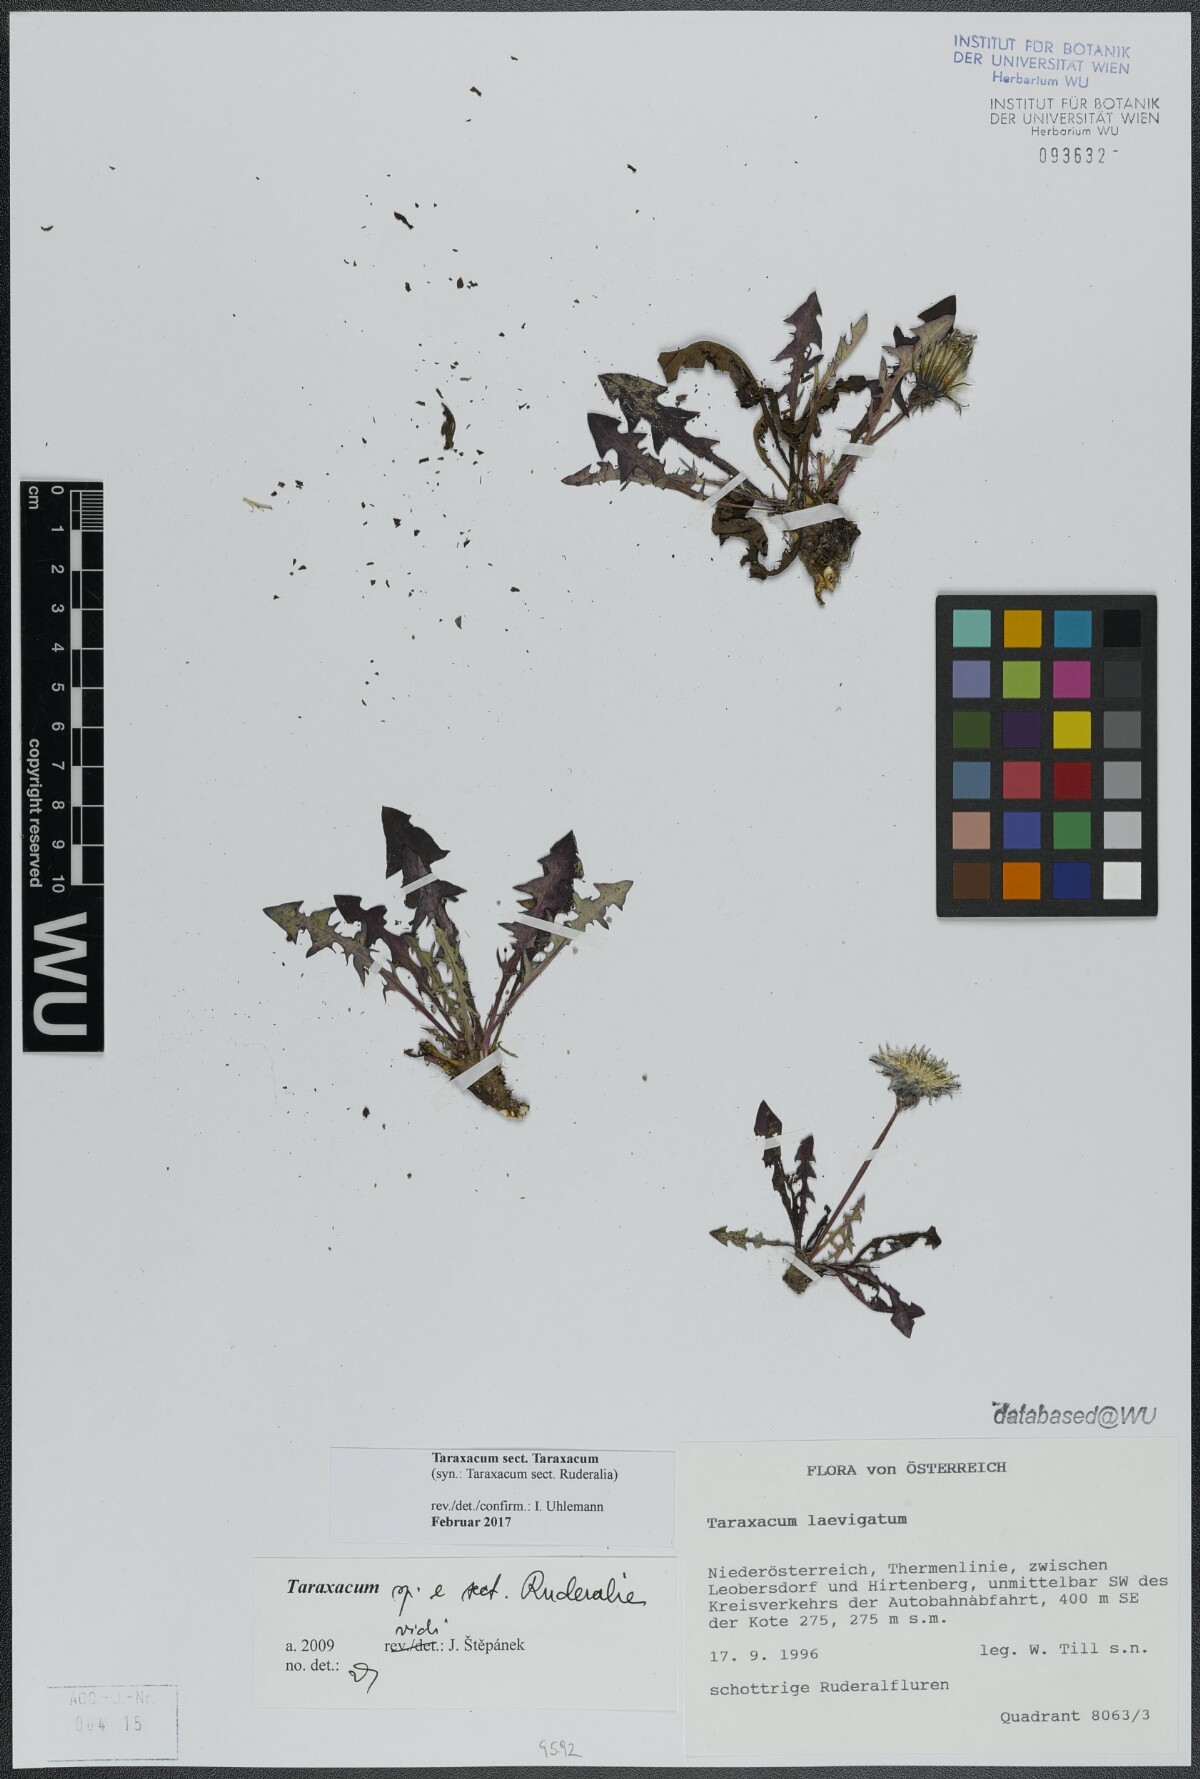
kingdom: Plantae
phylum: Tracheophyta
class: Magnoliopsida
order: Asterales
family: Asteraceae
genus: Taraxacum
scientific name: Taraxacum
